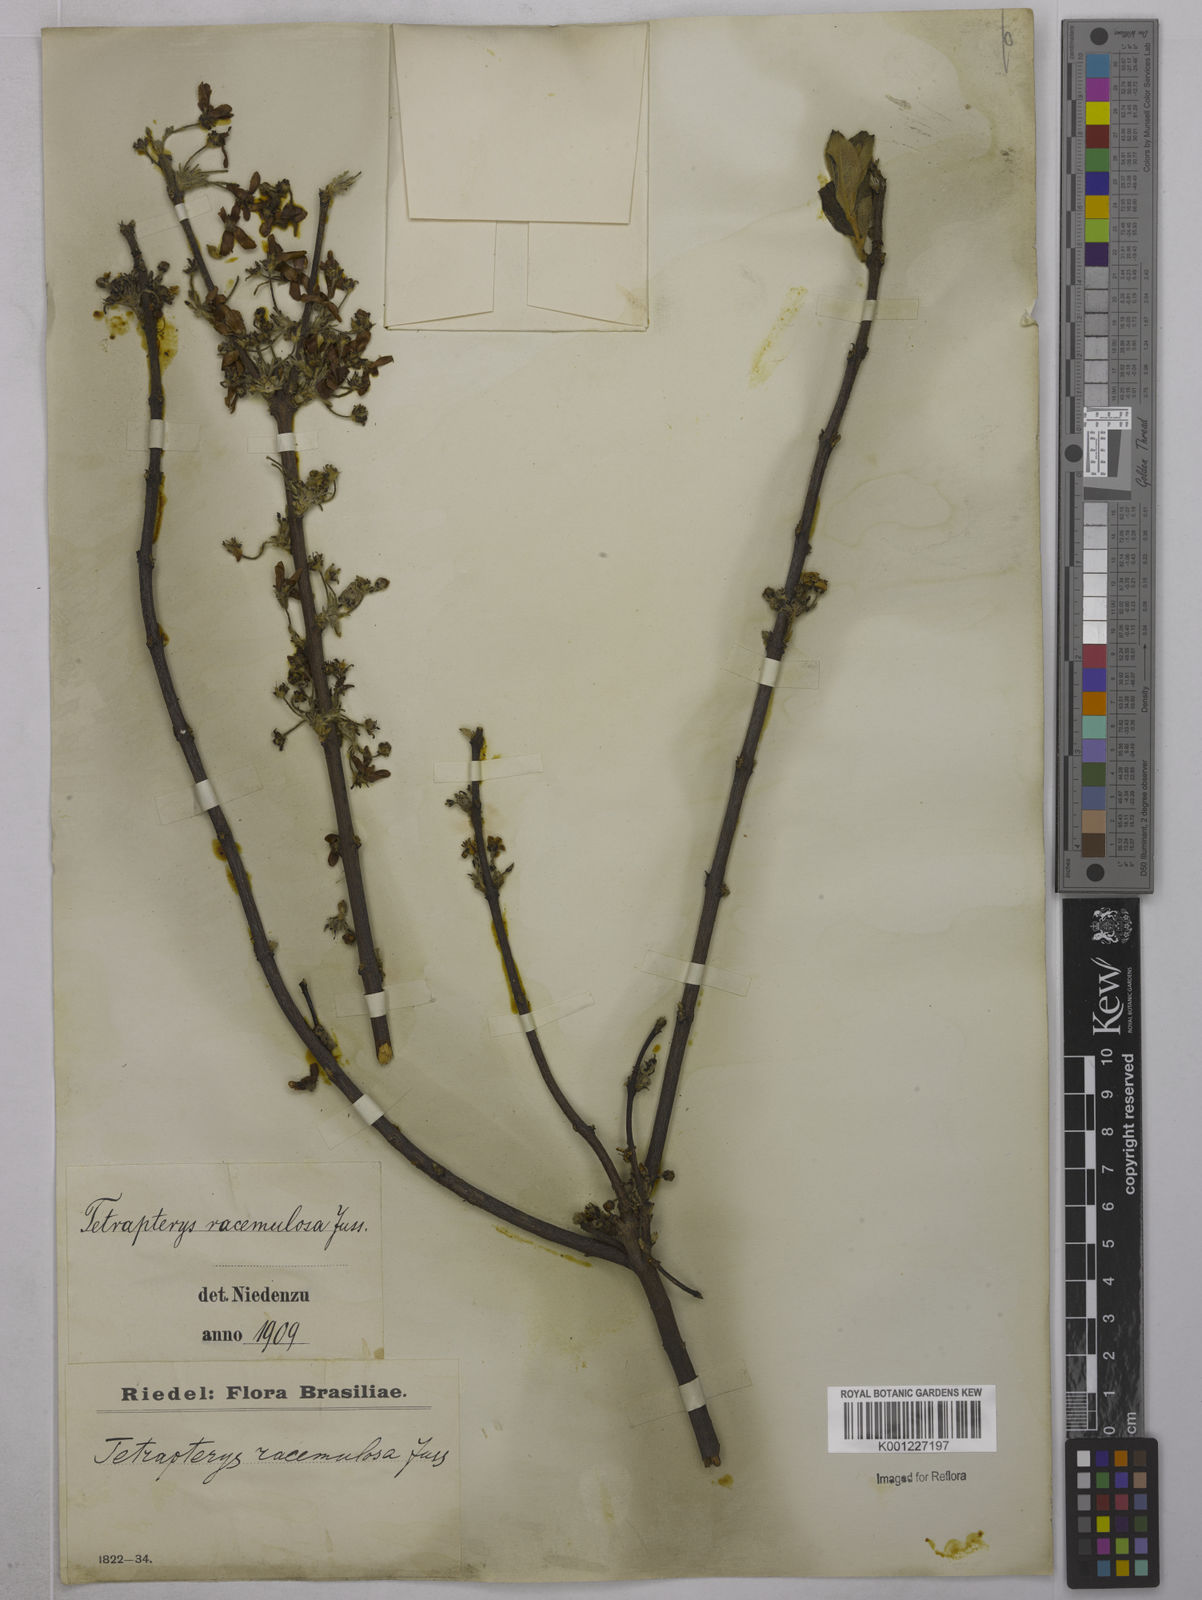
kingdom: Plantae
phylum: Tracheophyta
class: Magnoliopsida
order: Malpighiales
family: Malpighiaceae
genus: Glicophyllum
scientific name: Glicophyllum racemulosum
